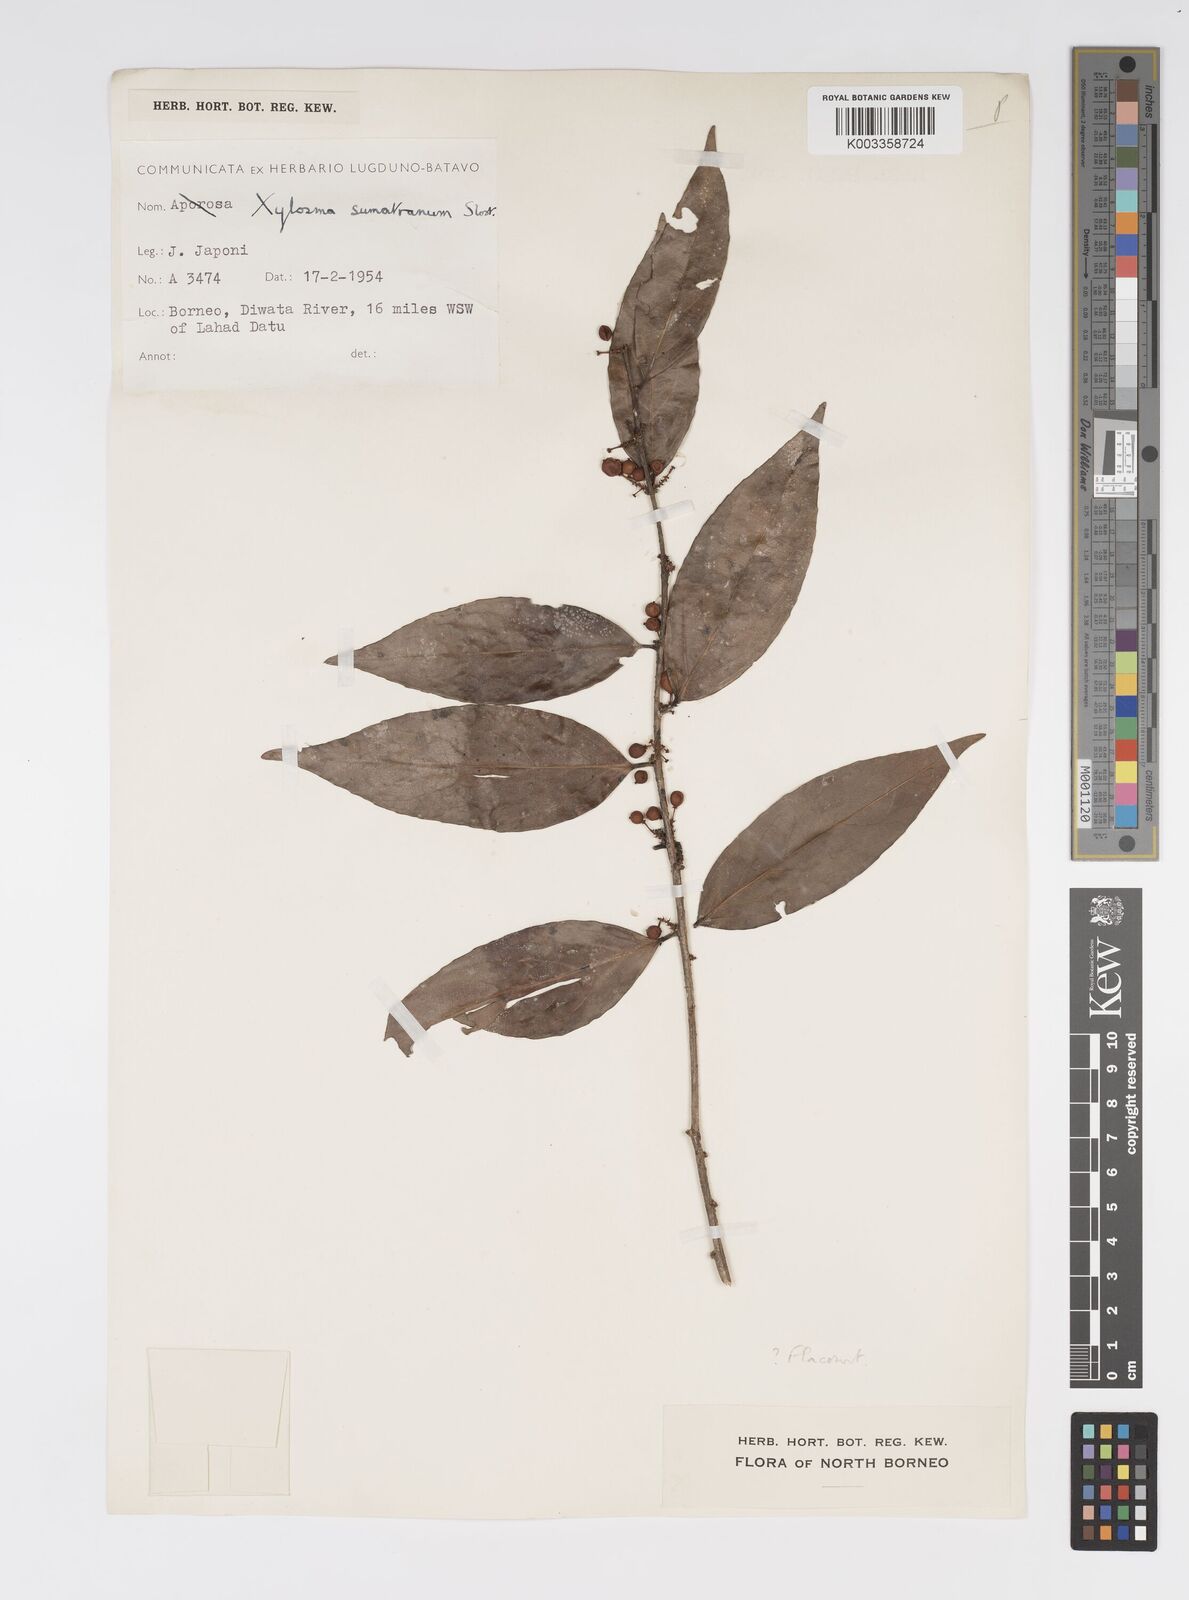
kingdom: Plantae
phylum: Tracheophyta
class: Magnoliopsida
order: Malpighiales
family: Salicaceae
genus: Xylosma
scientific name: Xylosma sumatrana
